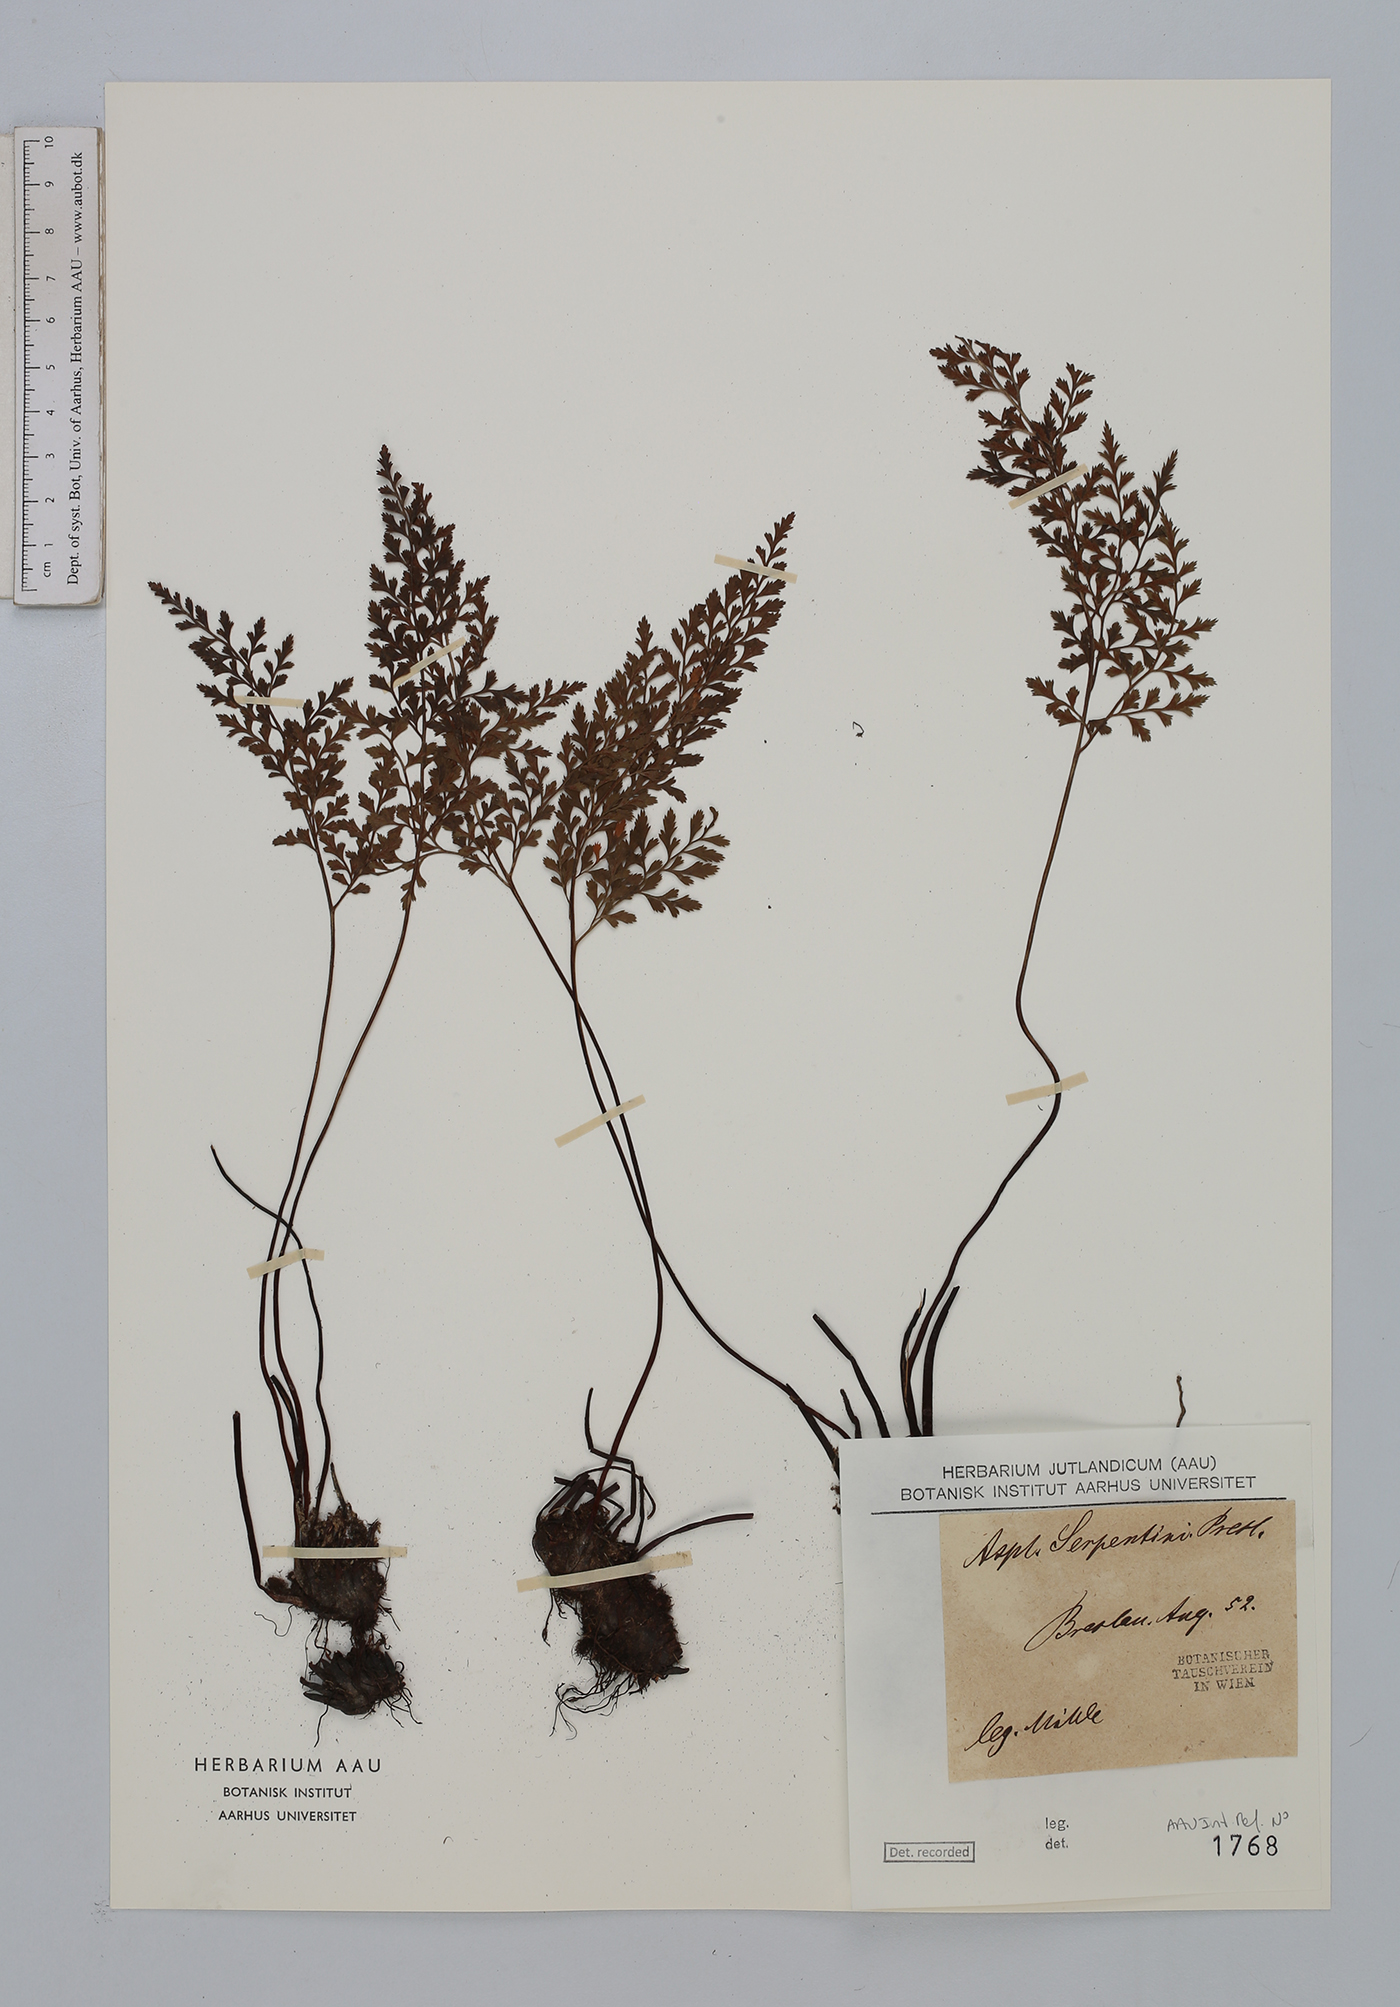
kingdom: Plantae
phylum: Tracheophyta
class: Polypodiopsida
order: Polypodiales
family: Aspleniaceae
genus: Asplenium
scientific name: Asplenium cuneifolium
